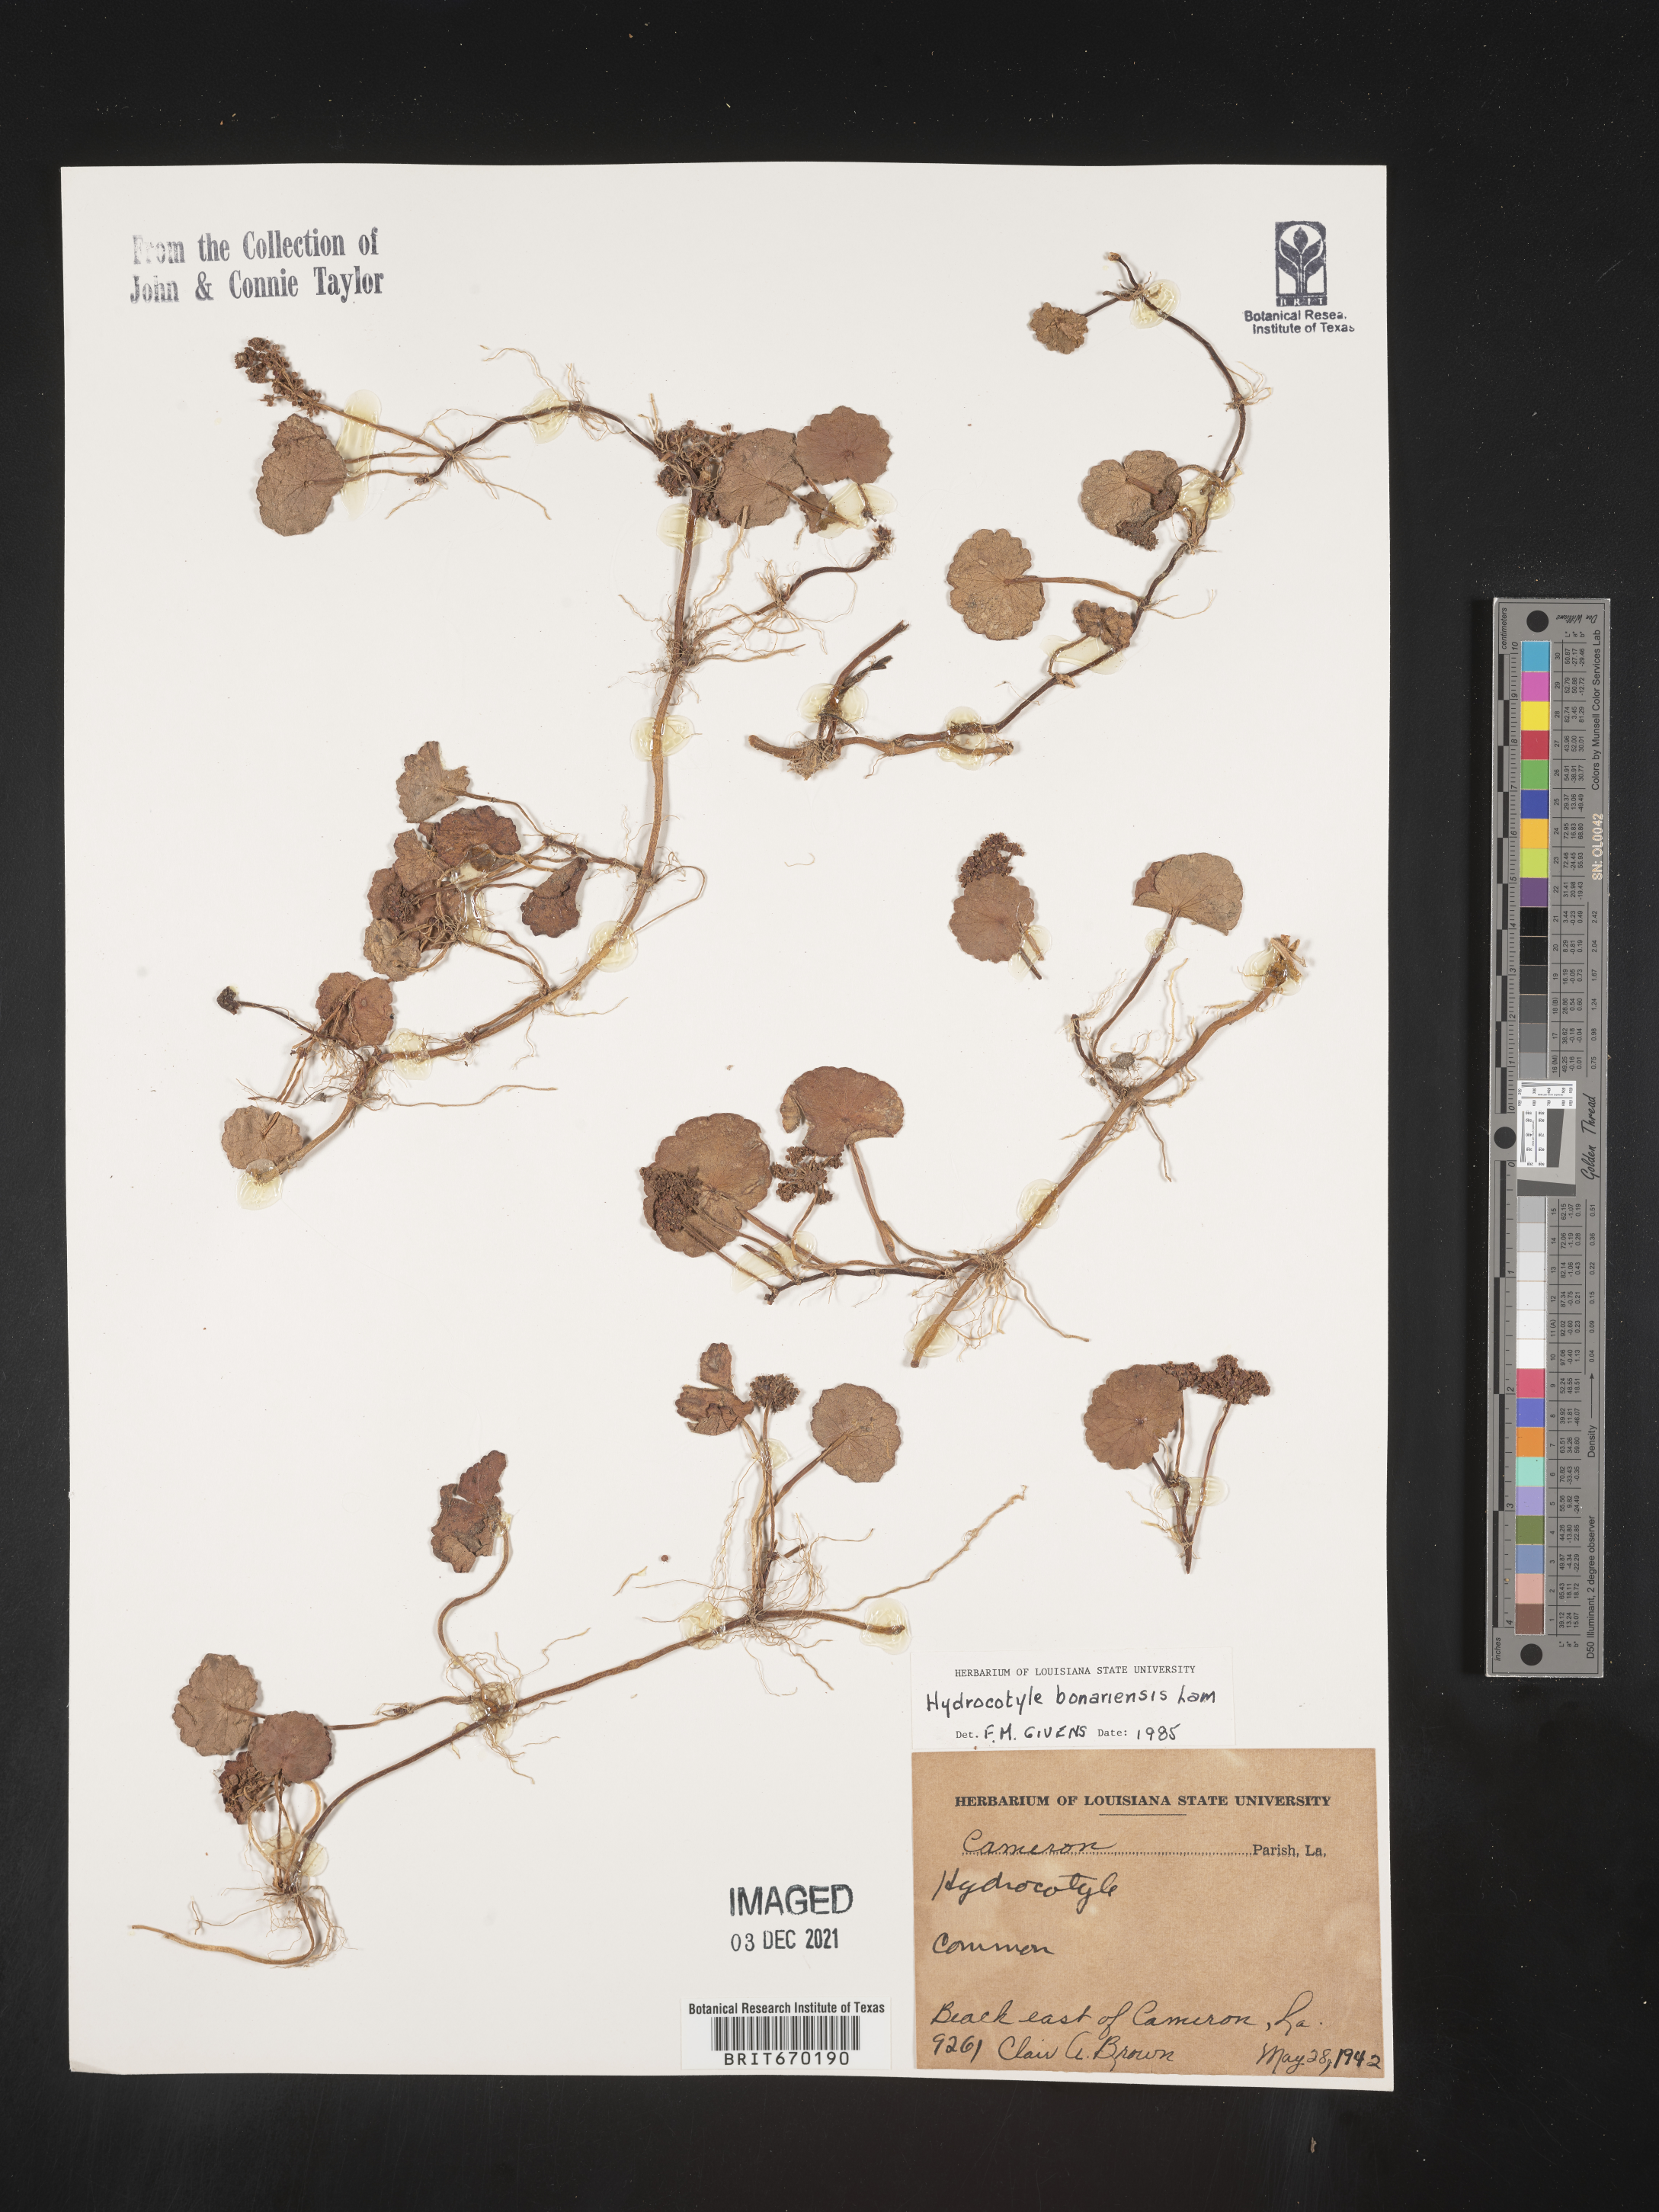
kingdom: Plantae
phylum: Tracheophyta
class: Magnoliopsida
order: Apiales
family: Araliaceae
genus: Hydrocotyle
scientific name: Hydrocotyle bonariensis
